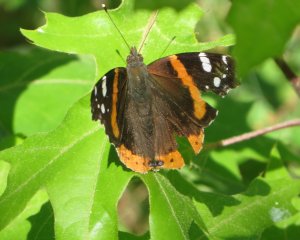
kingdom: Animalia
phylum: Arthropoda
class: Insecta
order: Lepidoptera
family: Nymphalidae
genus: Vanessa
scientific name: Vanessa atalanta
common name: Red Admiral
